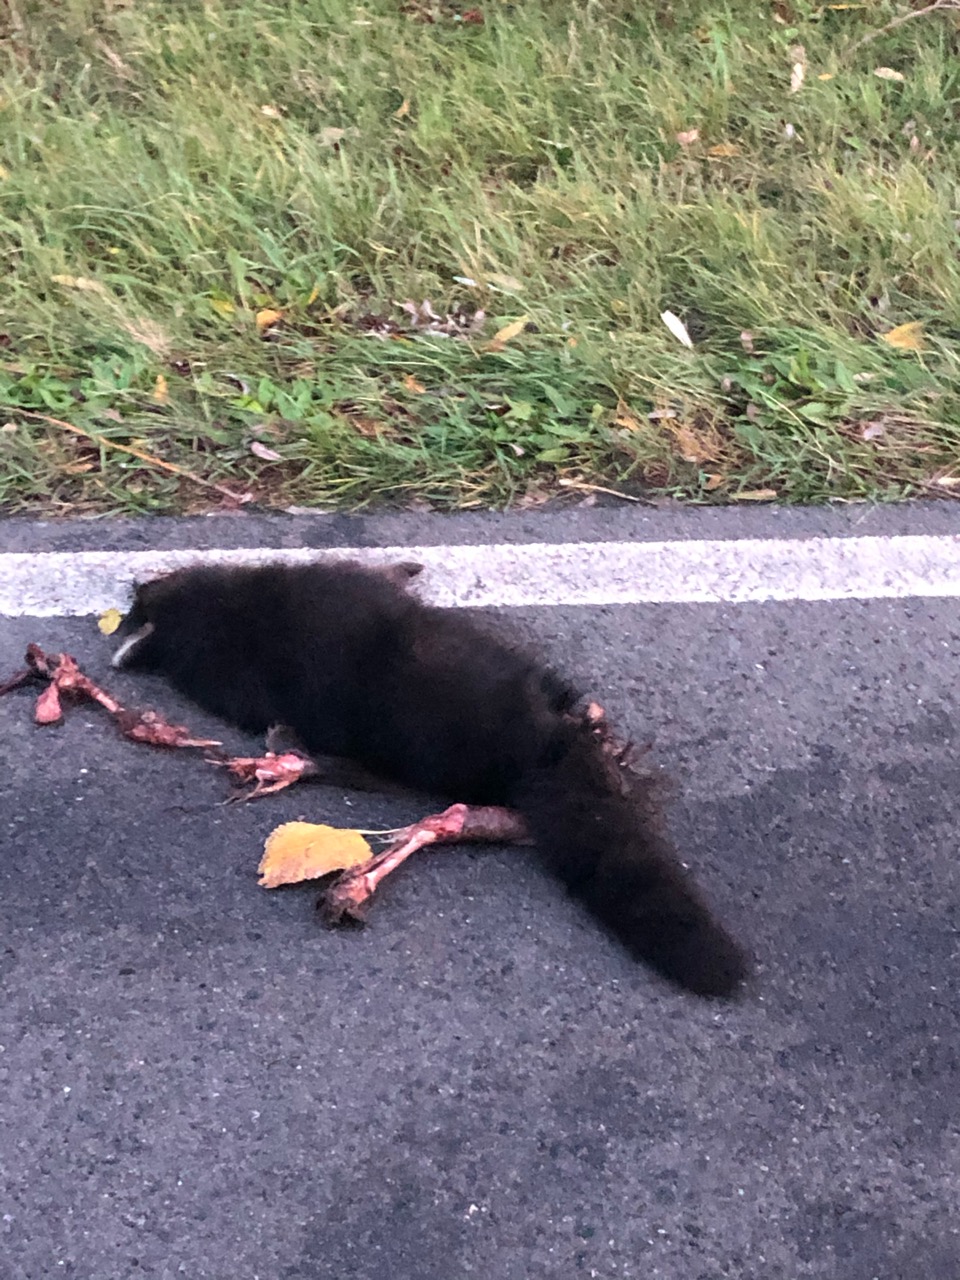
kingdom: Animalia
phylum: Chordata
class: Mammalia
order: Carnivora
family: Procyonidae
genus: Procyon
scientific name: Procyon lotor
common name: Raccoon
